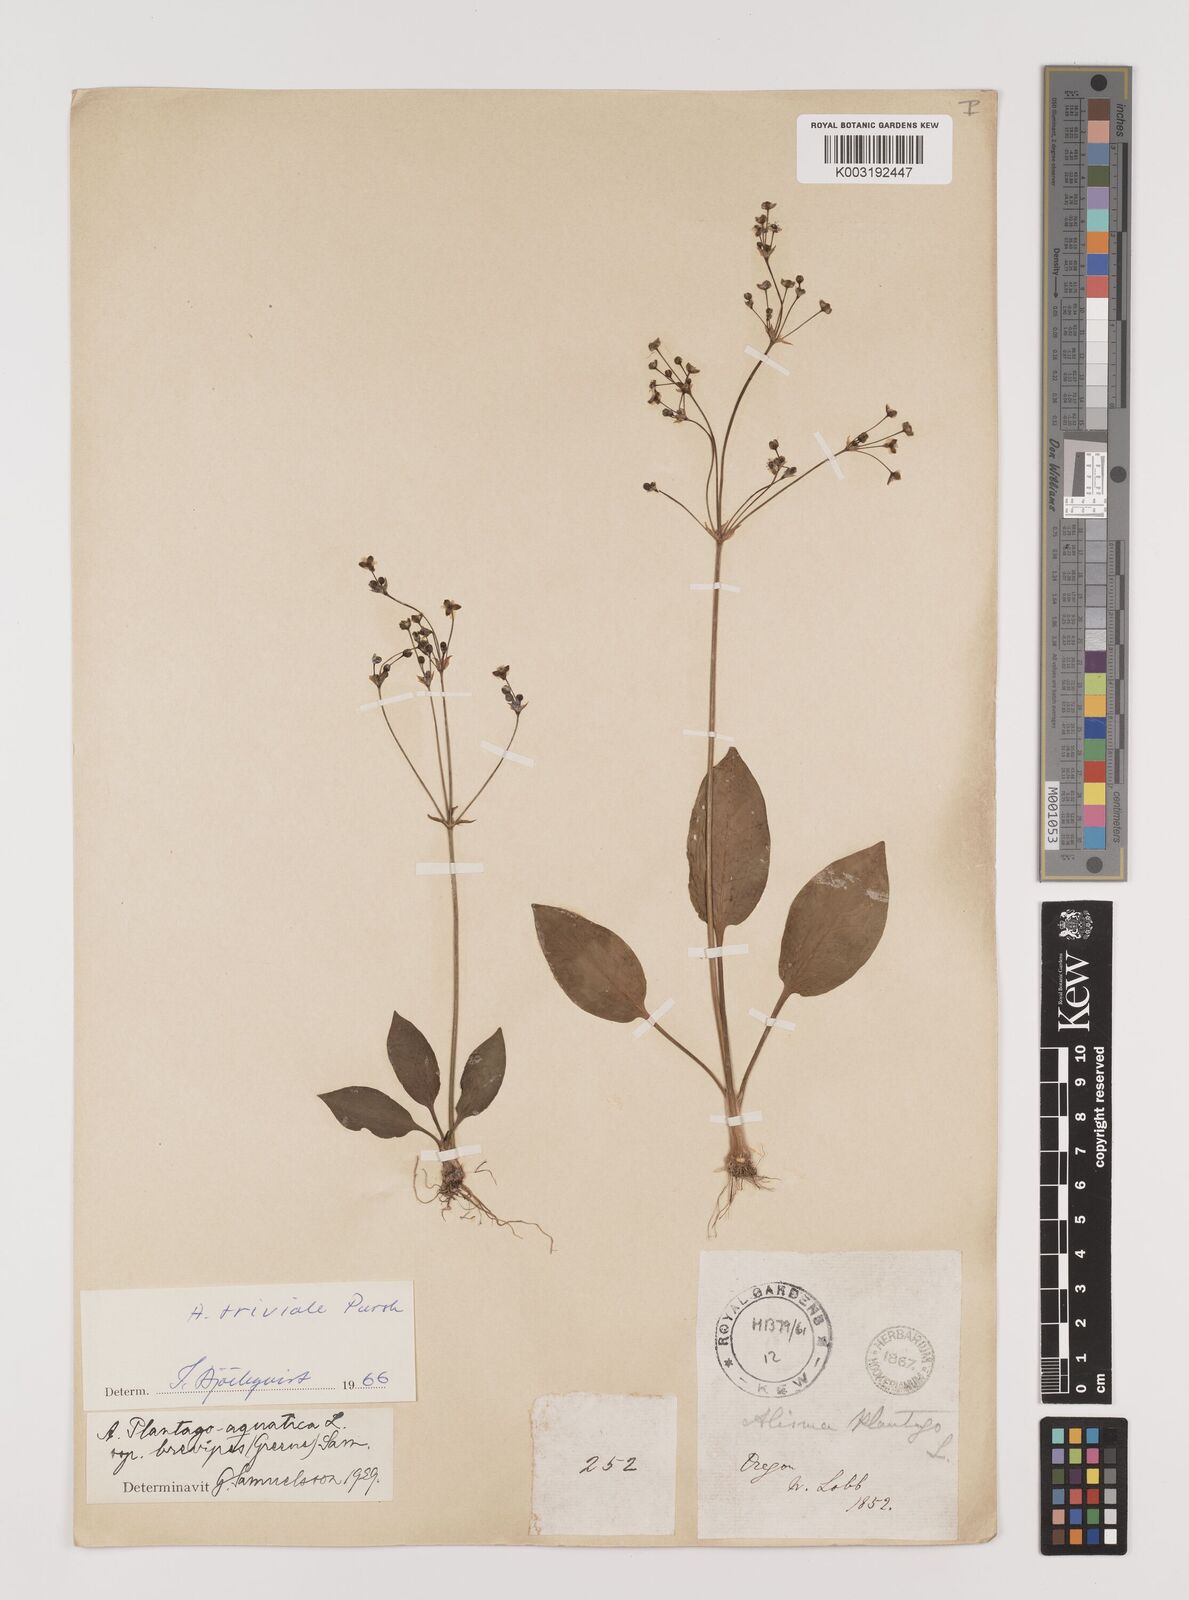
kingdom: Plantae
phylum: Tracheophyta
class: Liliopsida
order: Alismatales
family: Alismataceae
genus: Alisma
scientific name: Alisma triviale
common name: Northern water-plantain
